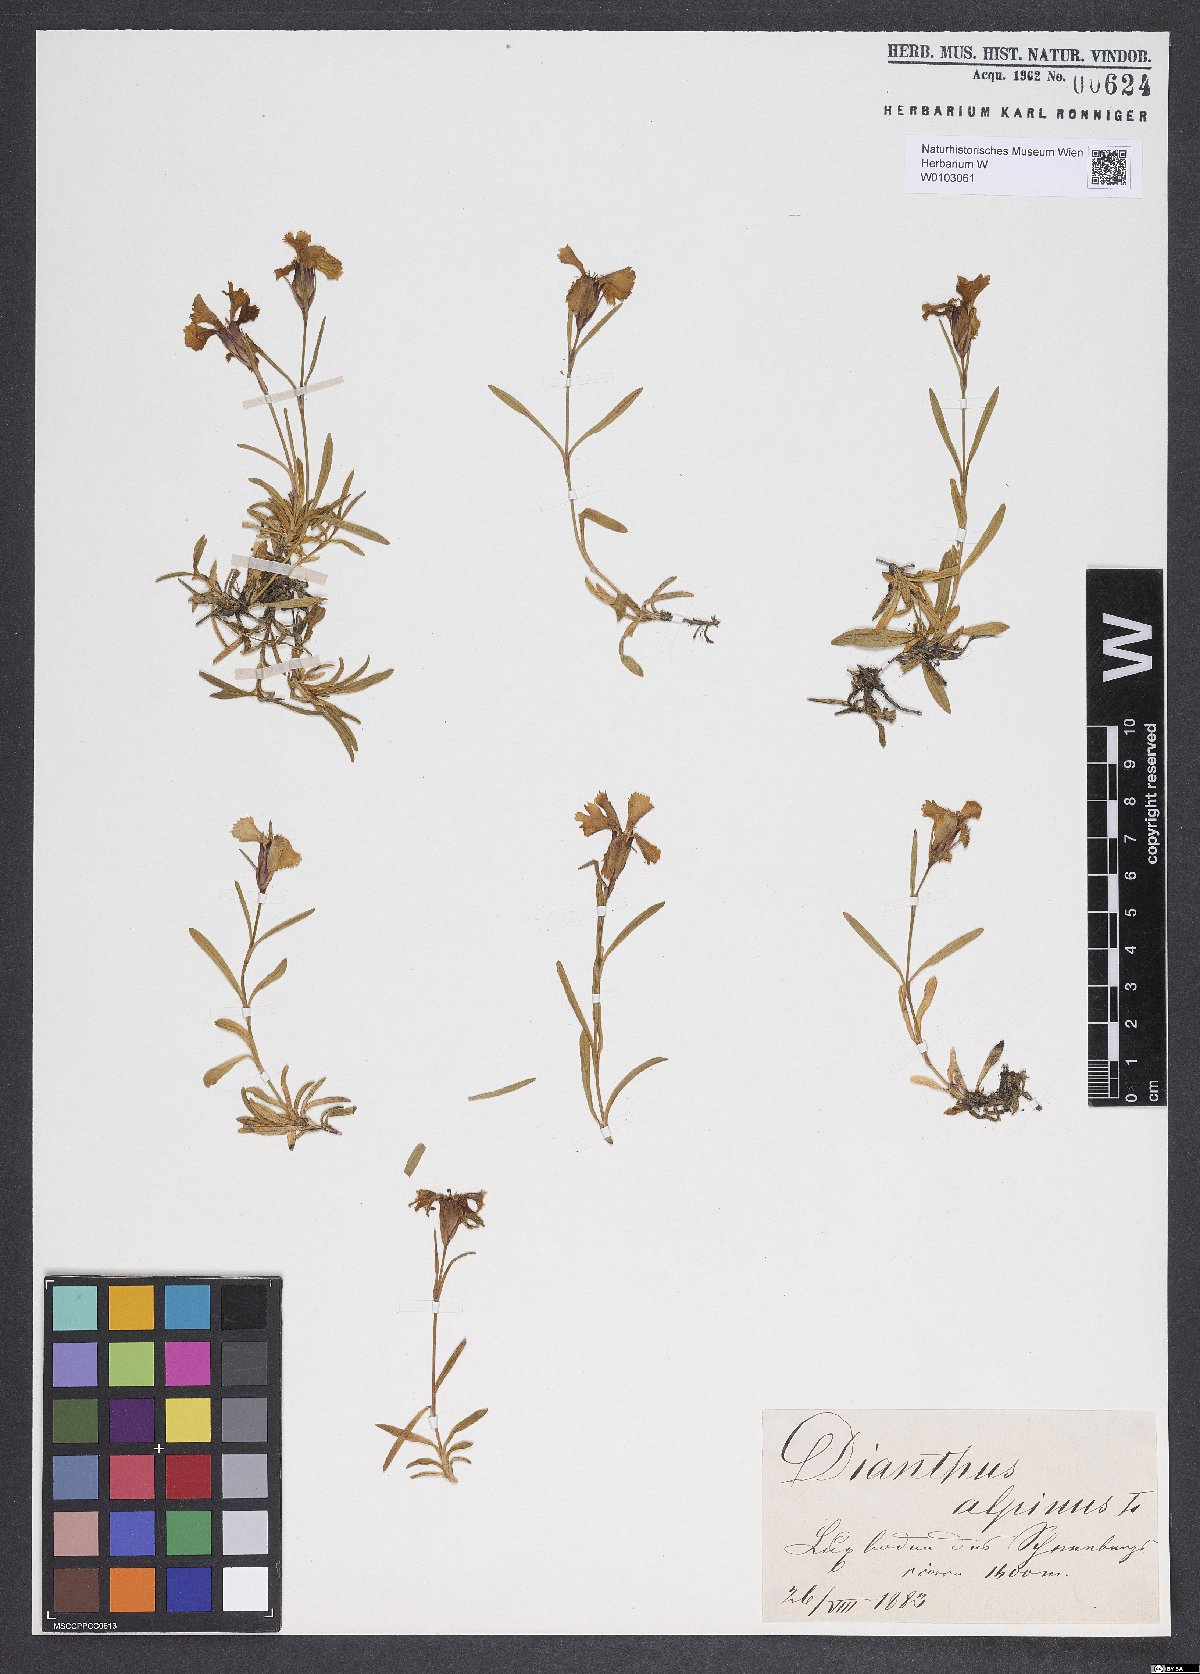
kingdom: Plantae
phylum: Tracheophyta
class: Magnoliopsida
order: Caryophyllales
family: Caryophyllaceae
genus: Dianthus
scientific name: Dianthus alpinus
